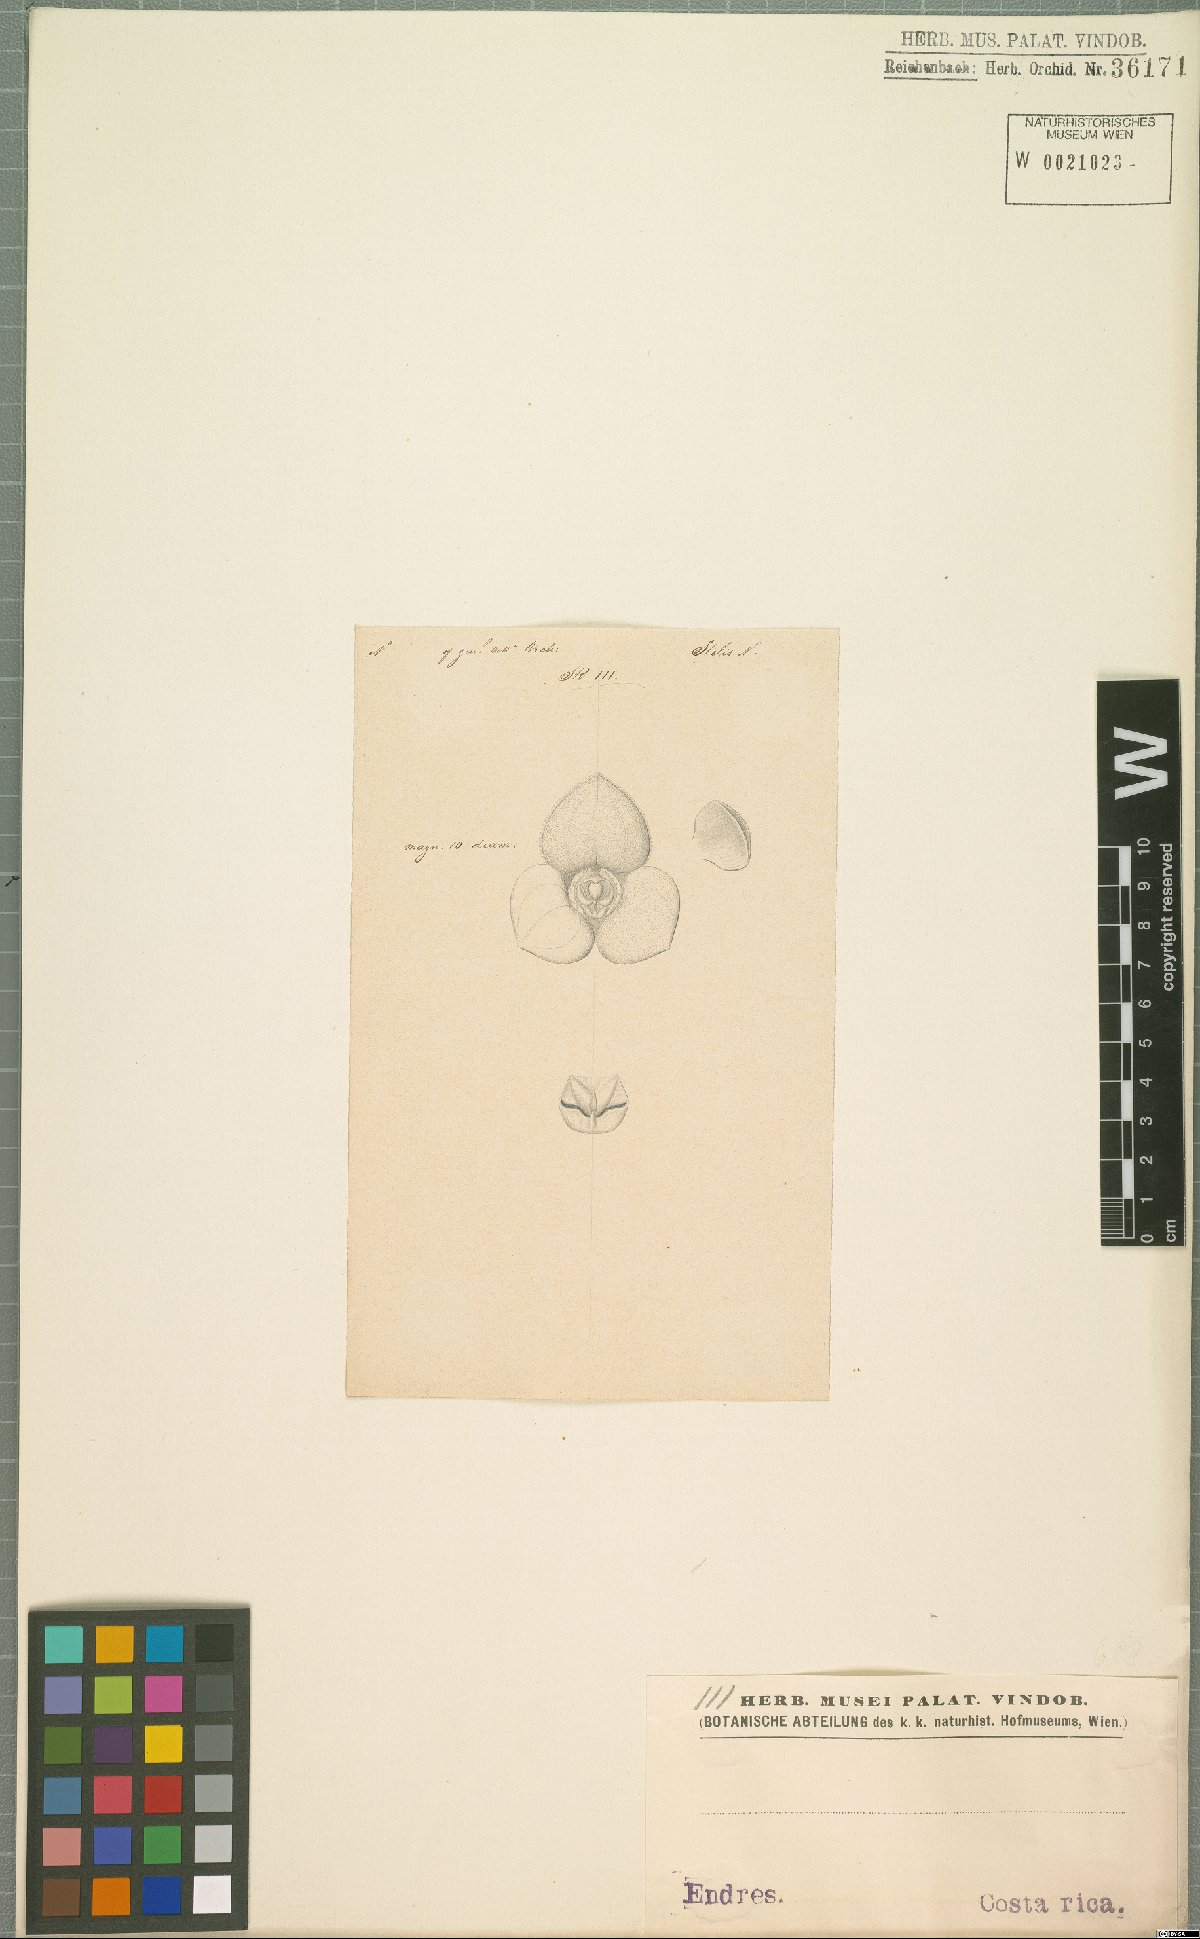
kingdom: Plantae
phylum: Tracheophyta
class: Liliopsida
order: Asparagales
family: Orchidaceae
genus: Stelis
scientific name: Stelis
